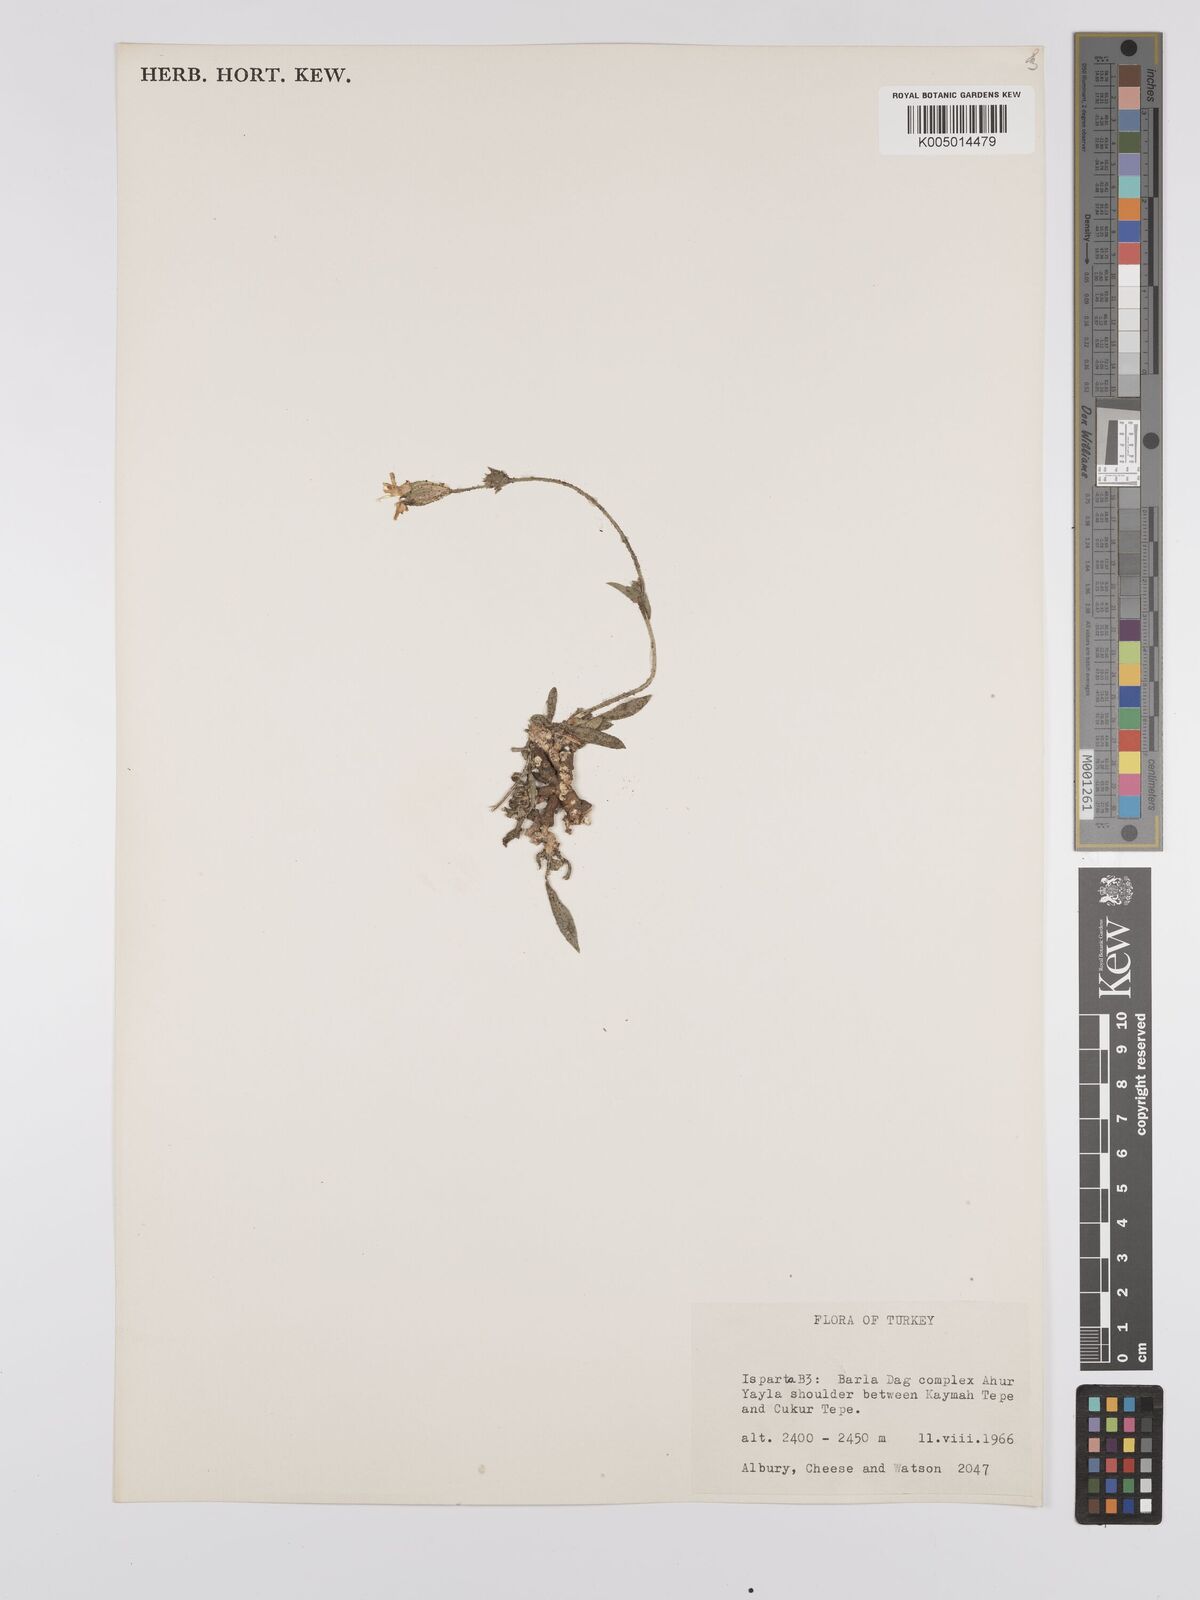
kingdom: Plantae
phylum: Tracheophyta
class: Magnoliopsida
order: Caryophyllales
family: Caryophyllaceae
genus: Silene
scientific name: Silene
